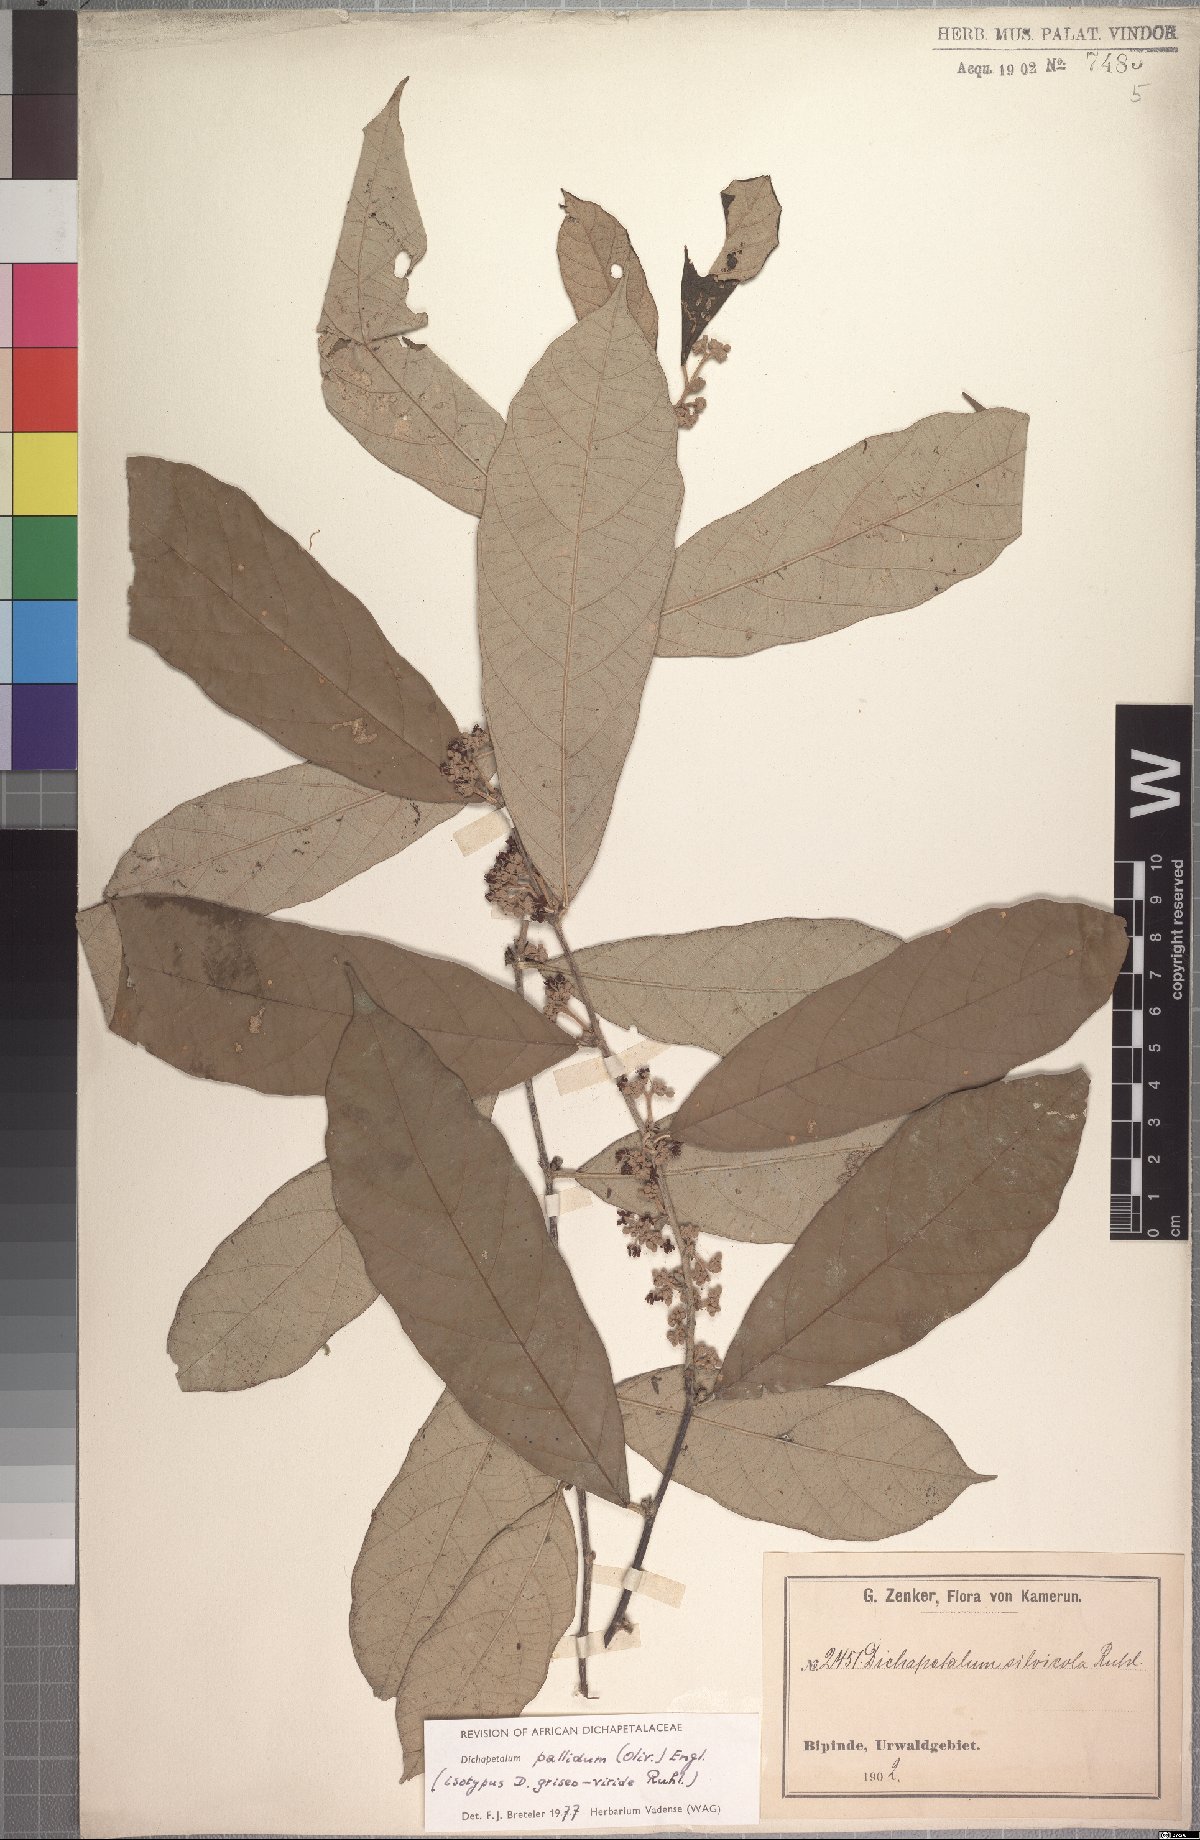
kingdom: Plantae
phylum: Tracheophyta
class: Magnoliopsida
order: Malpighiales
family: Dichapetalaceae
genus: Dichapetalum
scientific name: Dichapetalum pallidum
